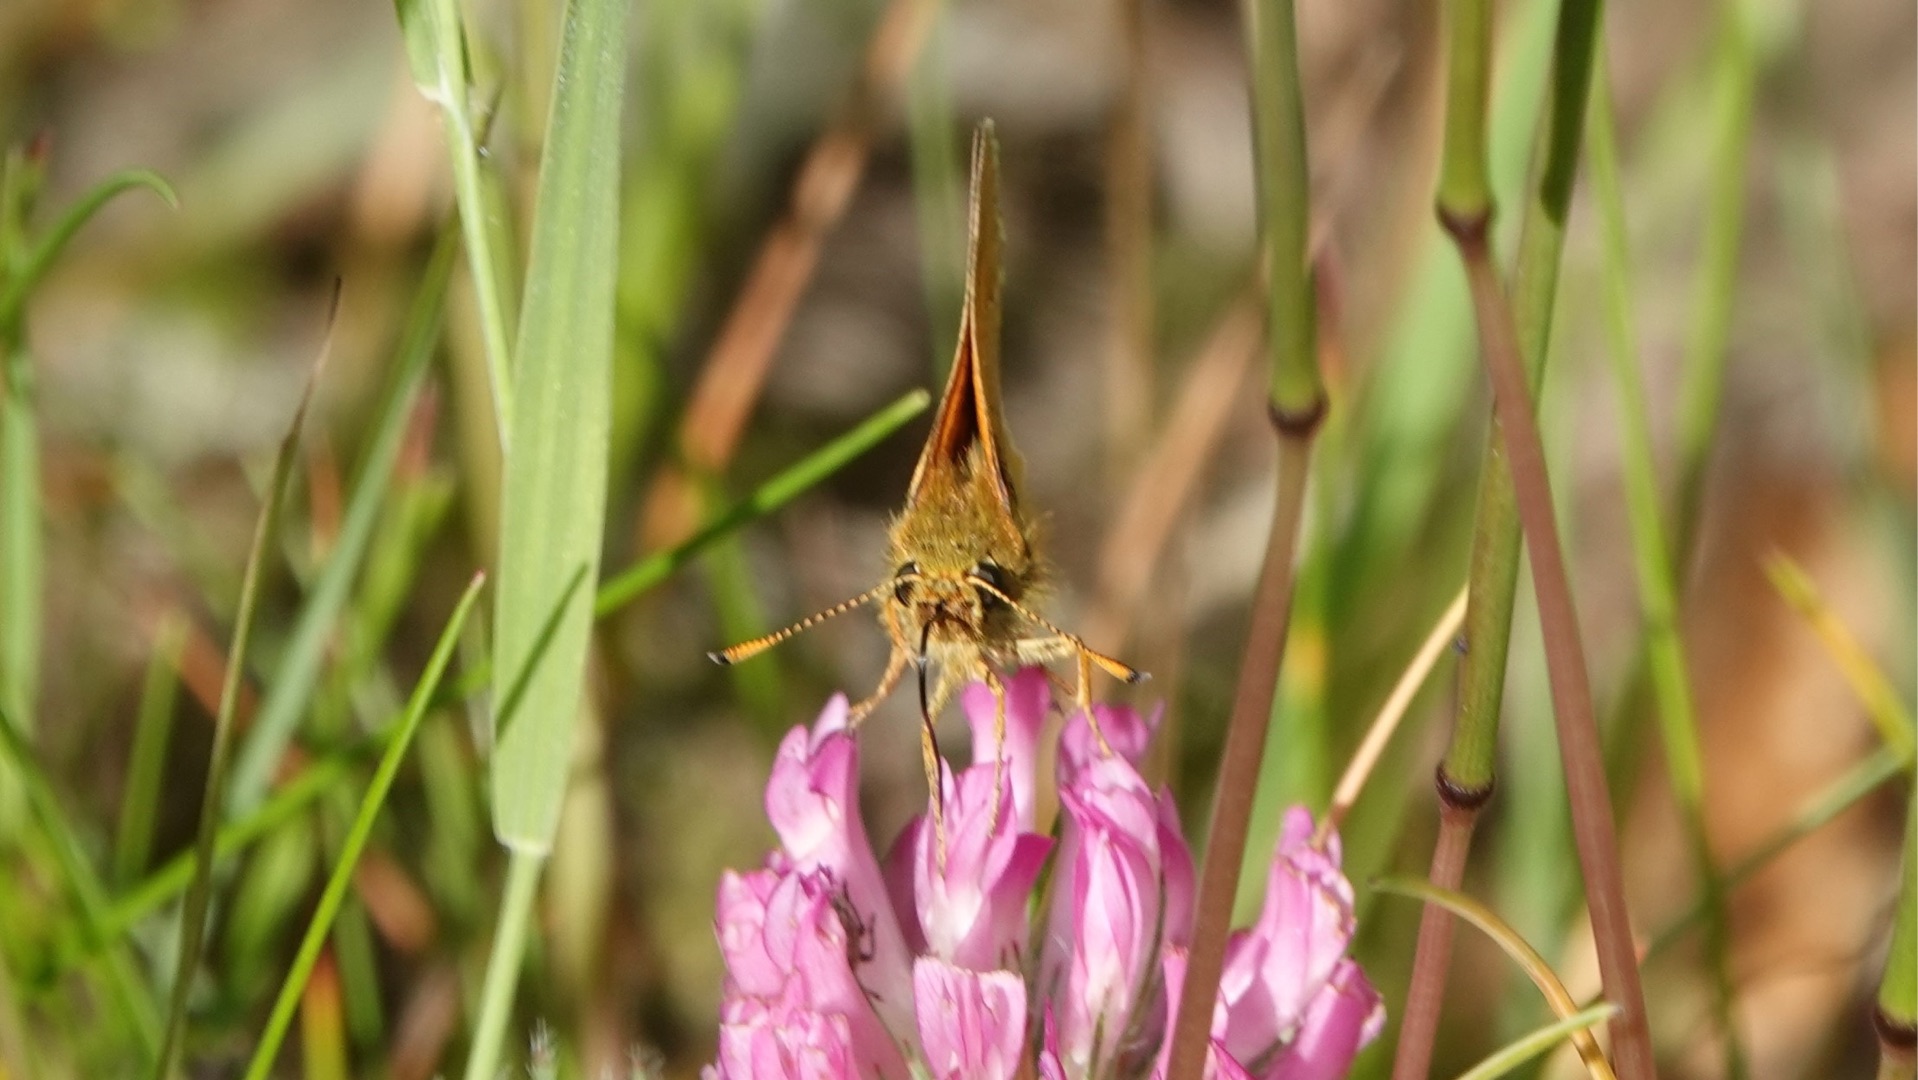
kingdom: Animalia
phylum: Arthropoda
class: Insecta
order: Lepidoptera
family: Hesperiidae
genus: Ochlodes
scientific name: Ochlodes venata
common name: Stor bredpande
